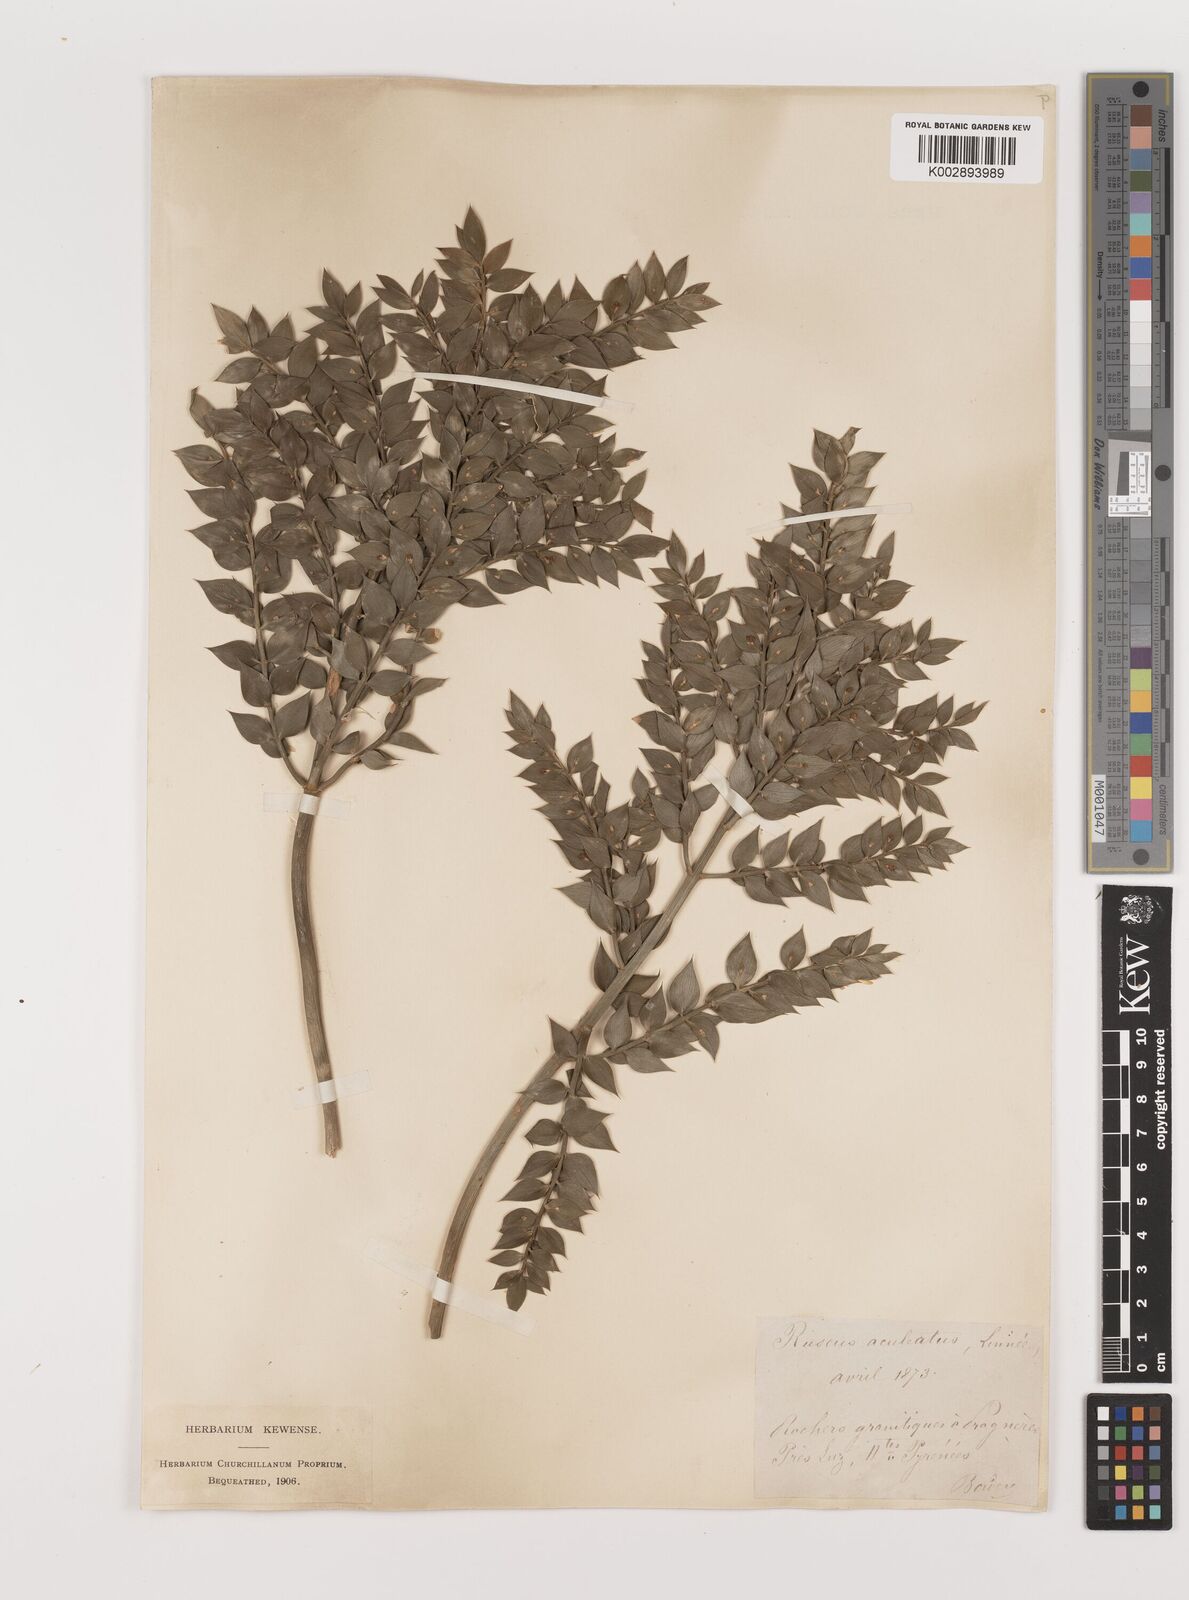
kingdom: Plantae
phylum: Tracheophyta
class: Liliopsida
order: Asparagales
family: Asparagaceae
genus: Ruscus
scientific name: Ruscus aculeatus
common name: Butcher's-broom
